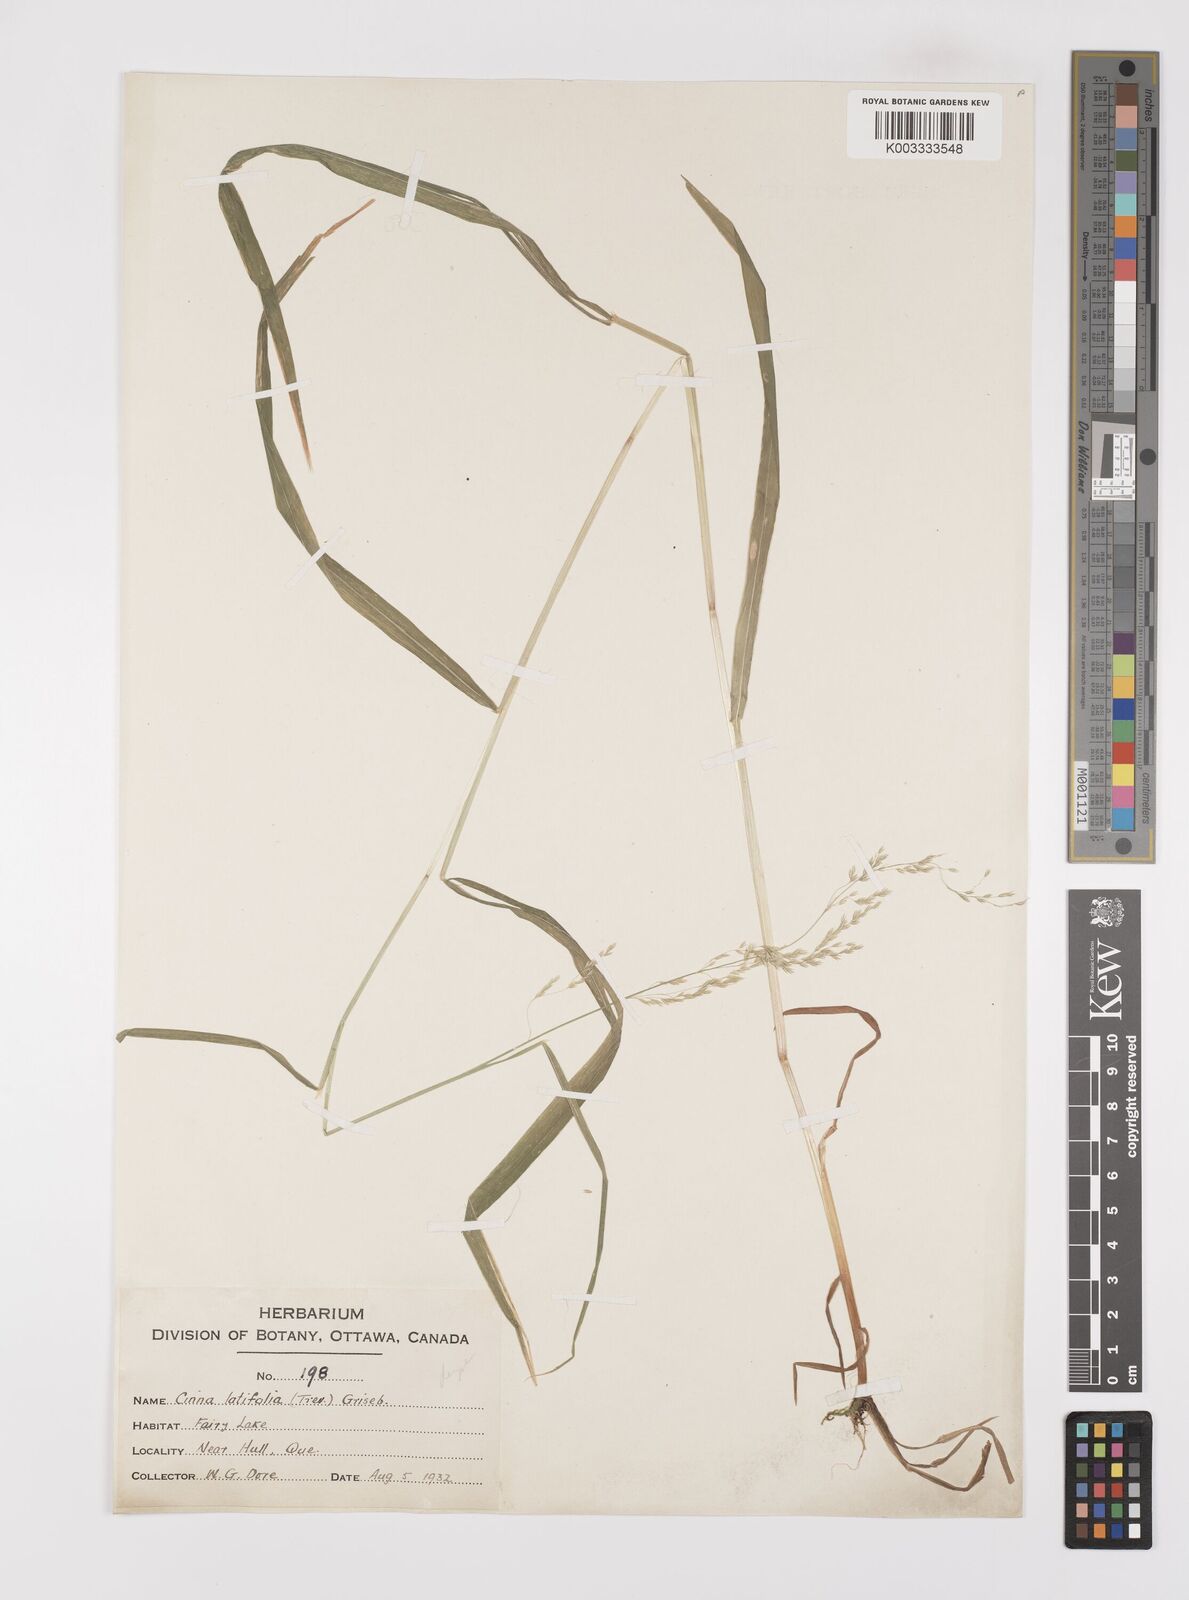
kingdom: Plantae
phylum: Tracheophyta
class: Liliopsida
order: Poales
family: Poaceae
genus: Cinna
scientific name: Cinna latifolia
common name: Drooping woodreed
